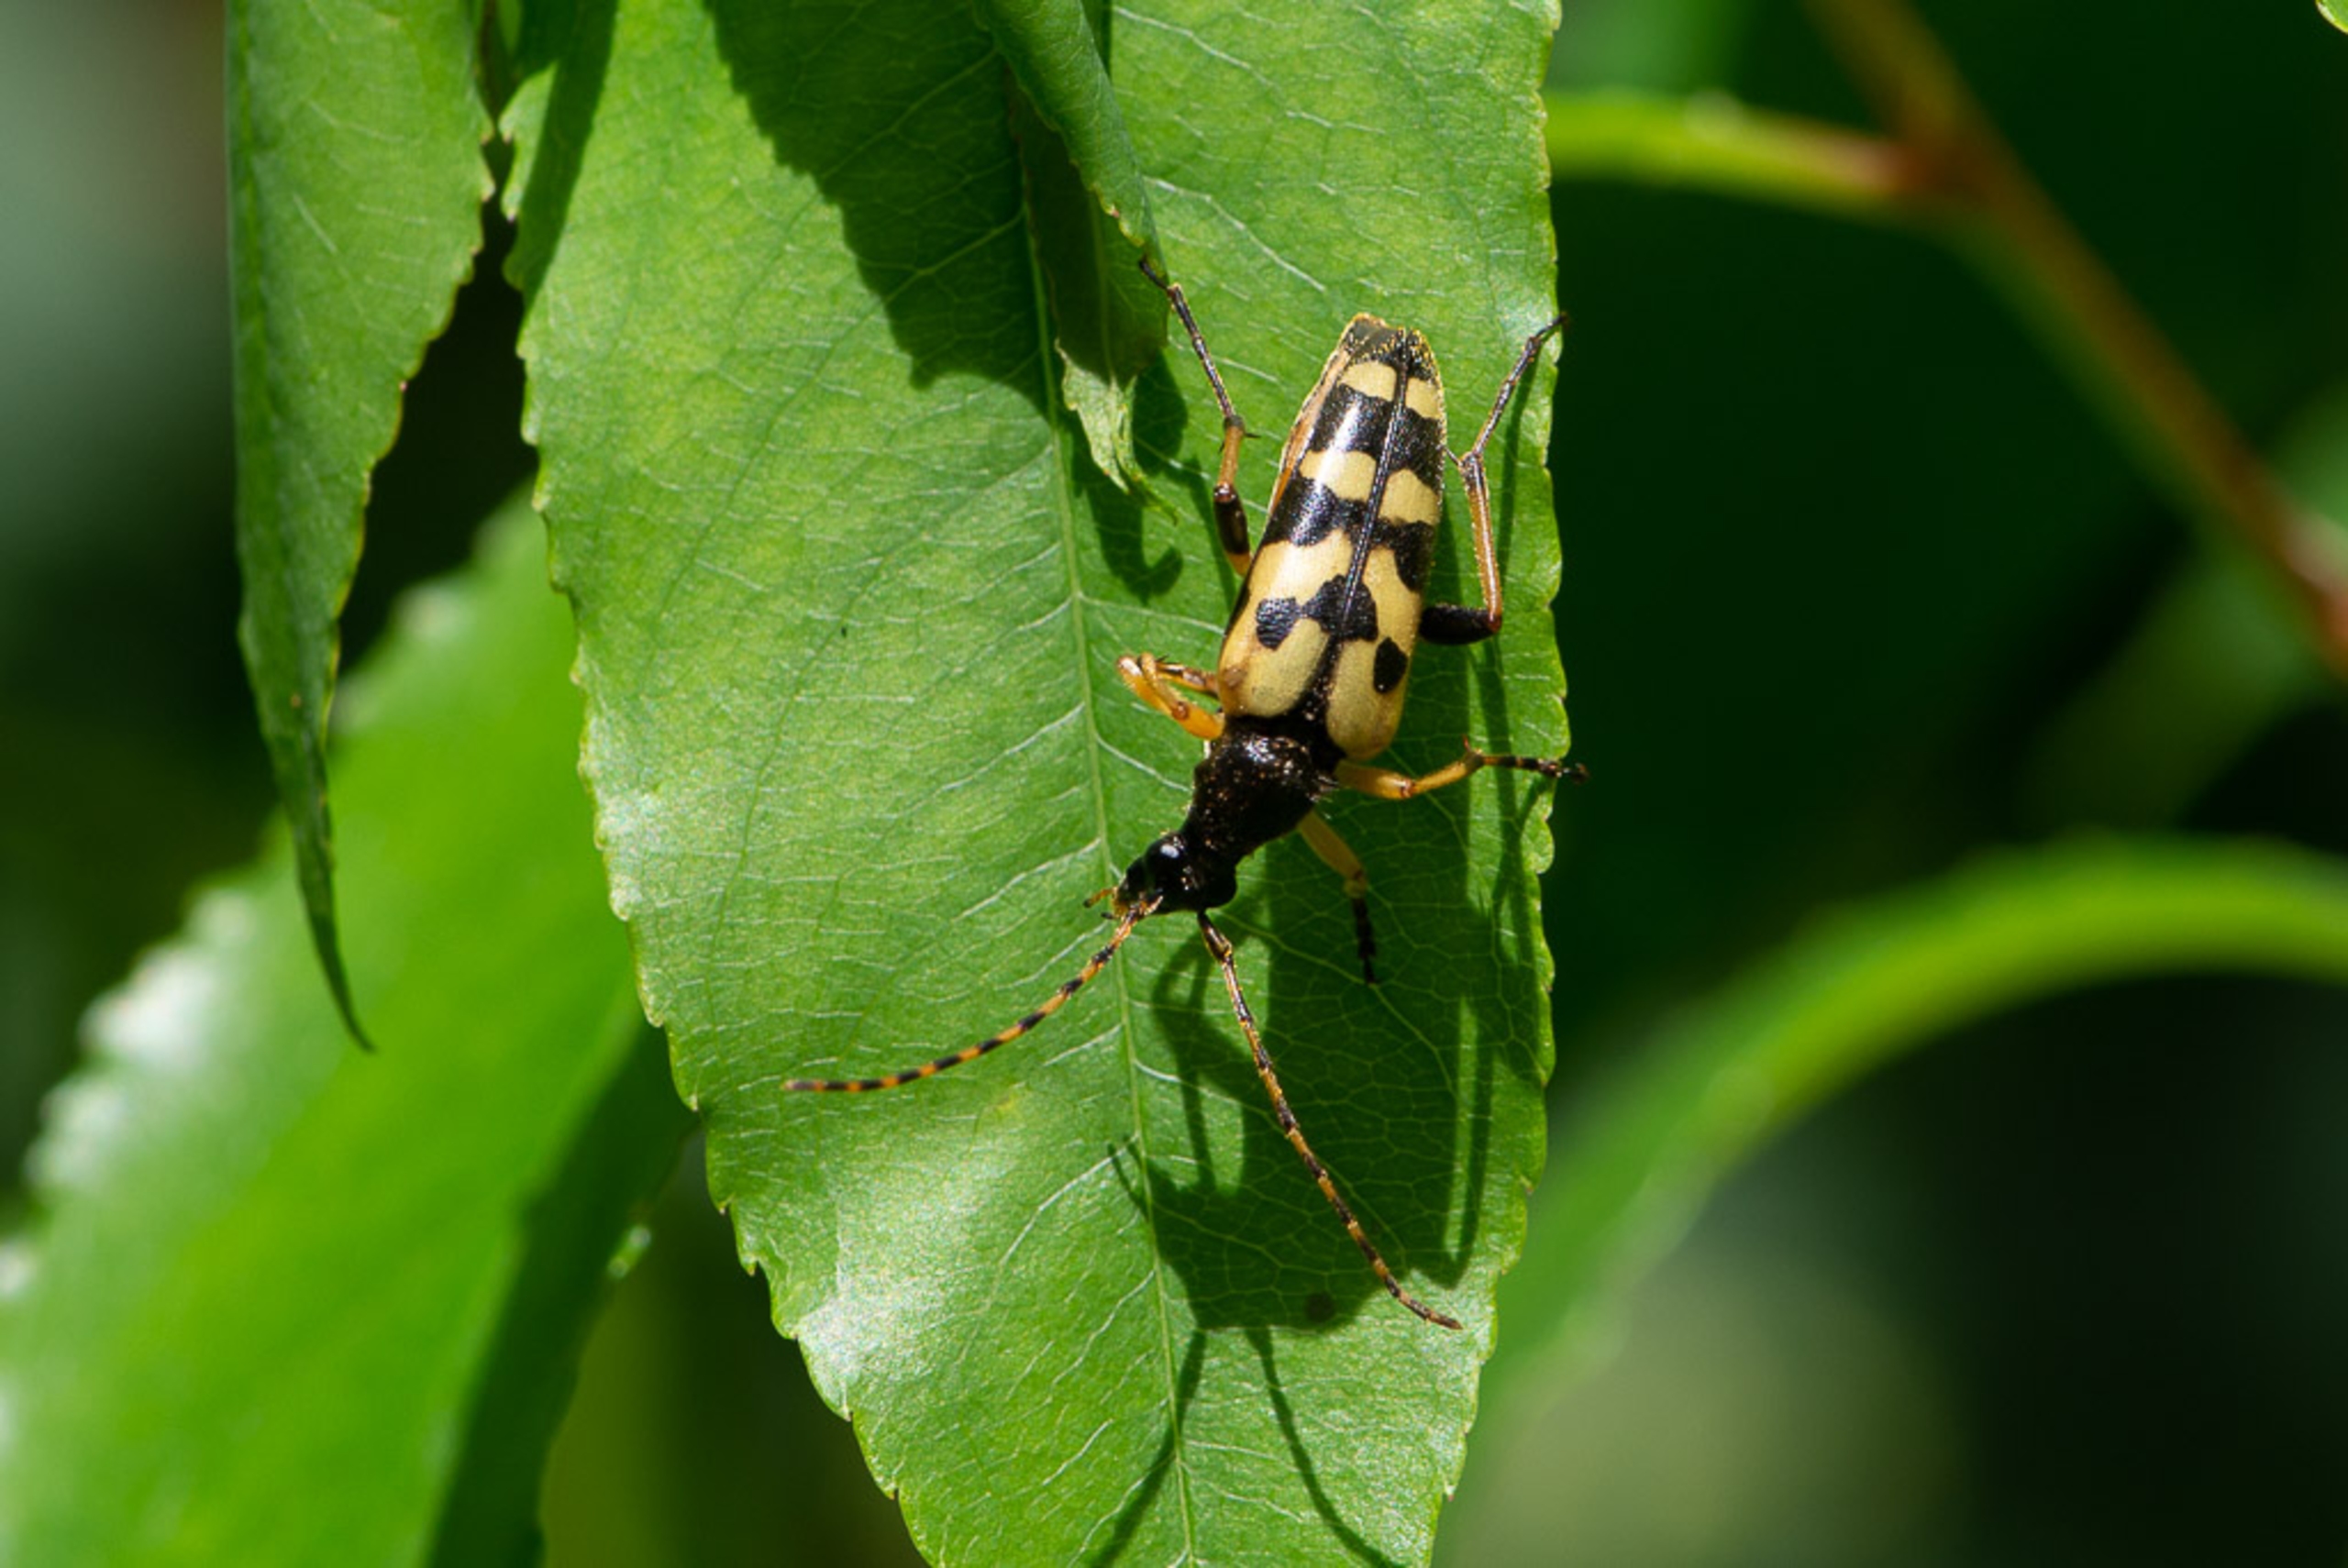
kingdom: Animalia
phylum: Arthropoda
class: Insecta
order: Coleoptera
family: Cerambycidae
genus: Rutpela
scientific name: Rutpela maculata
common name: Sydlig blomsterbuk
